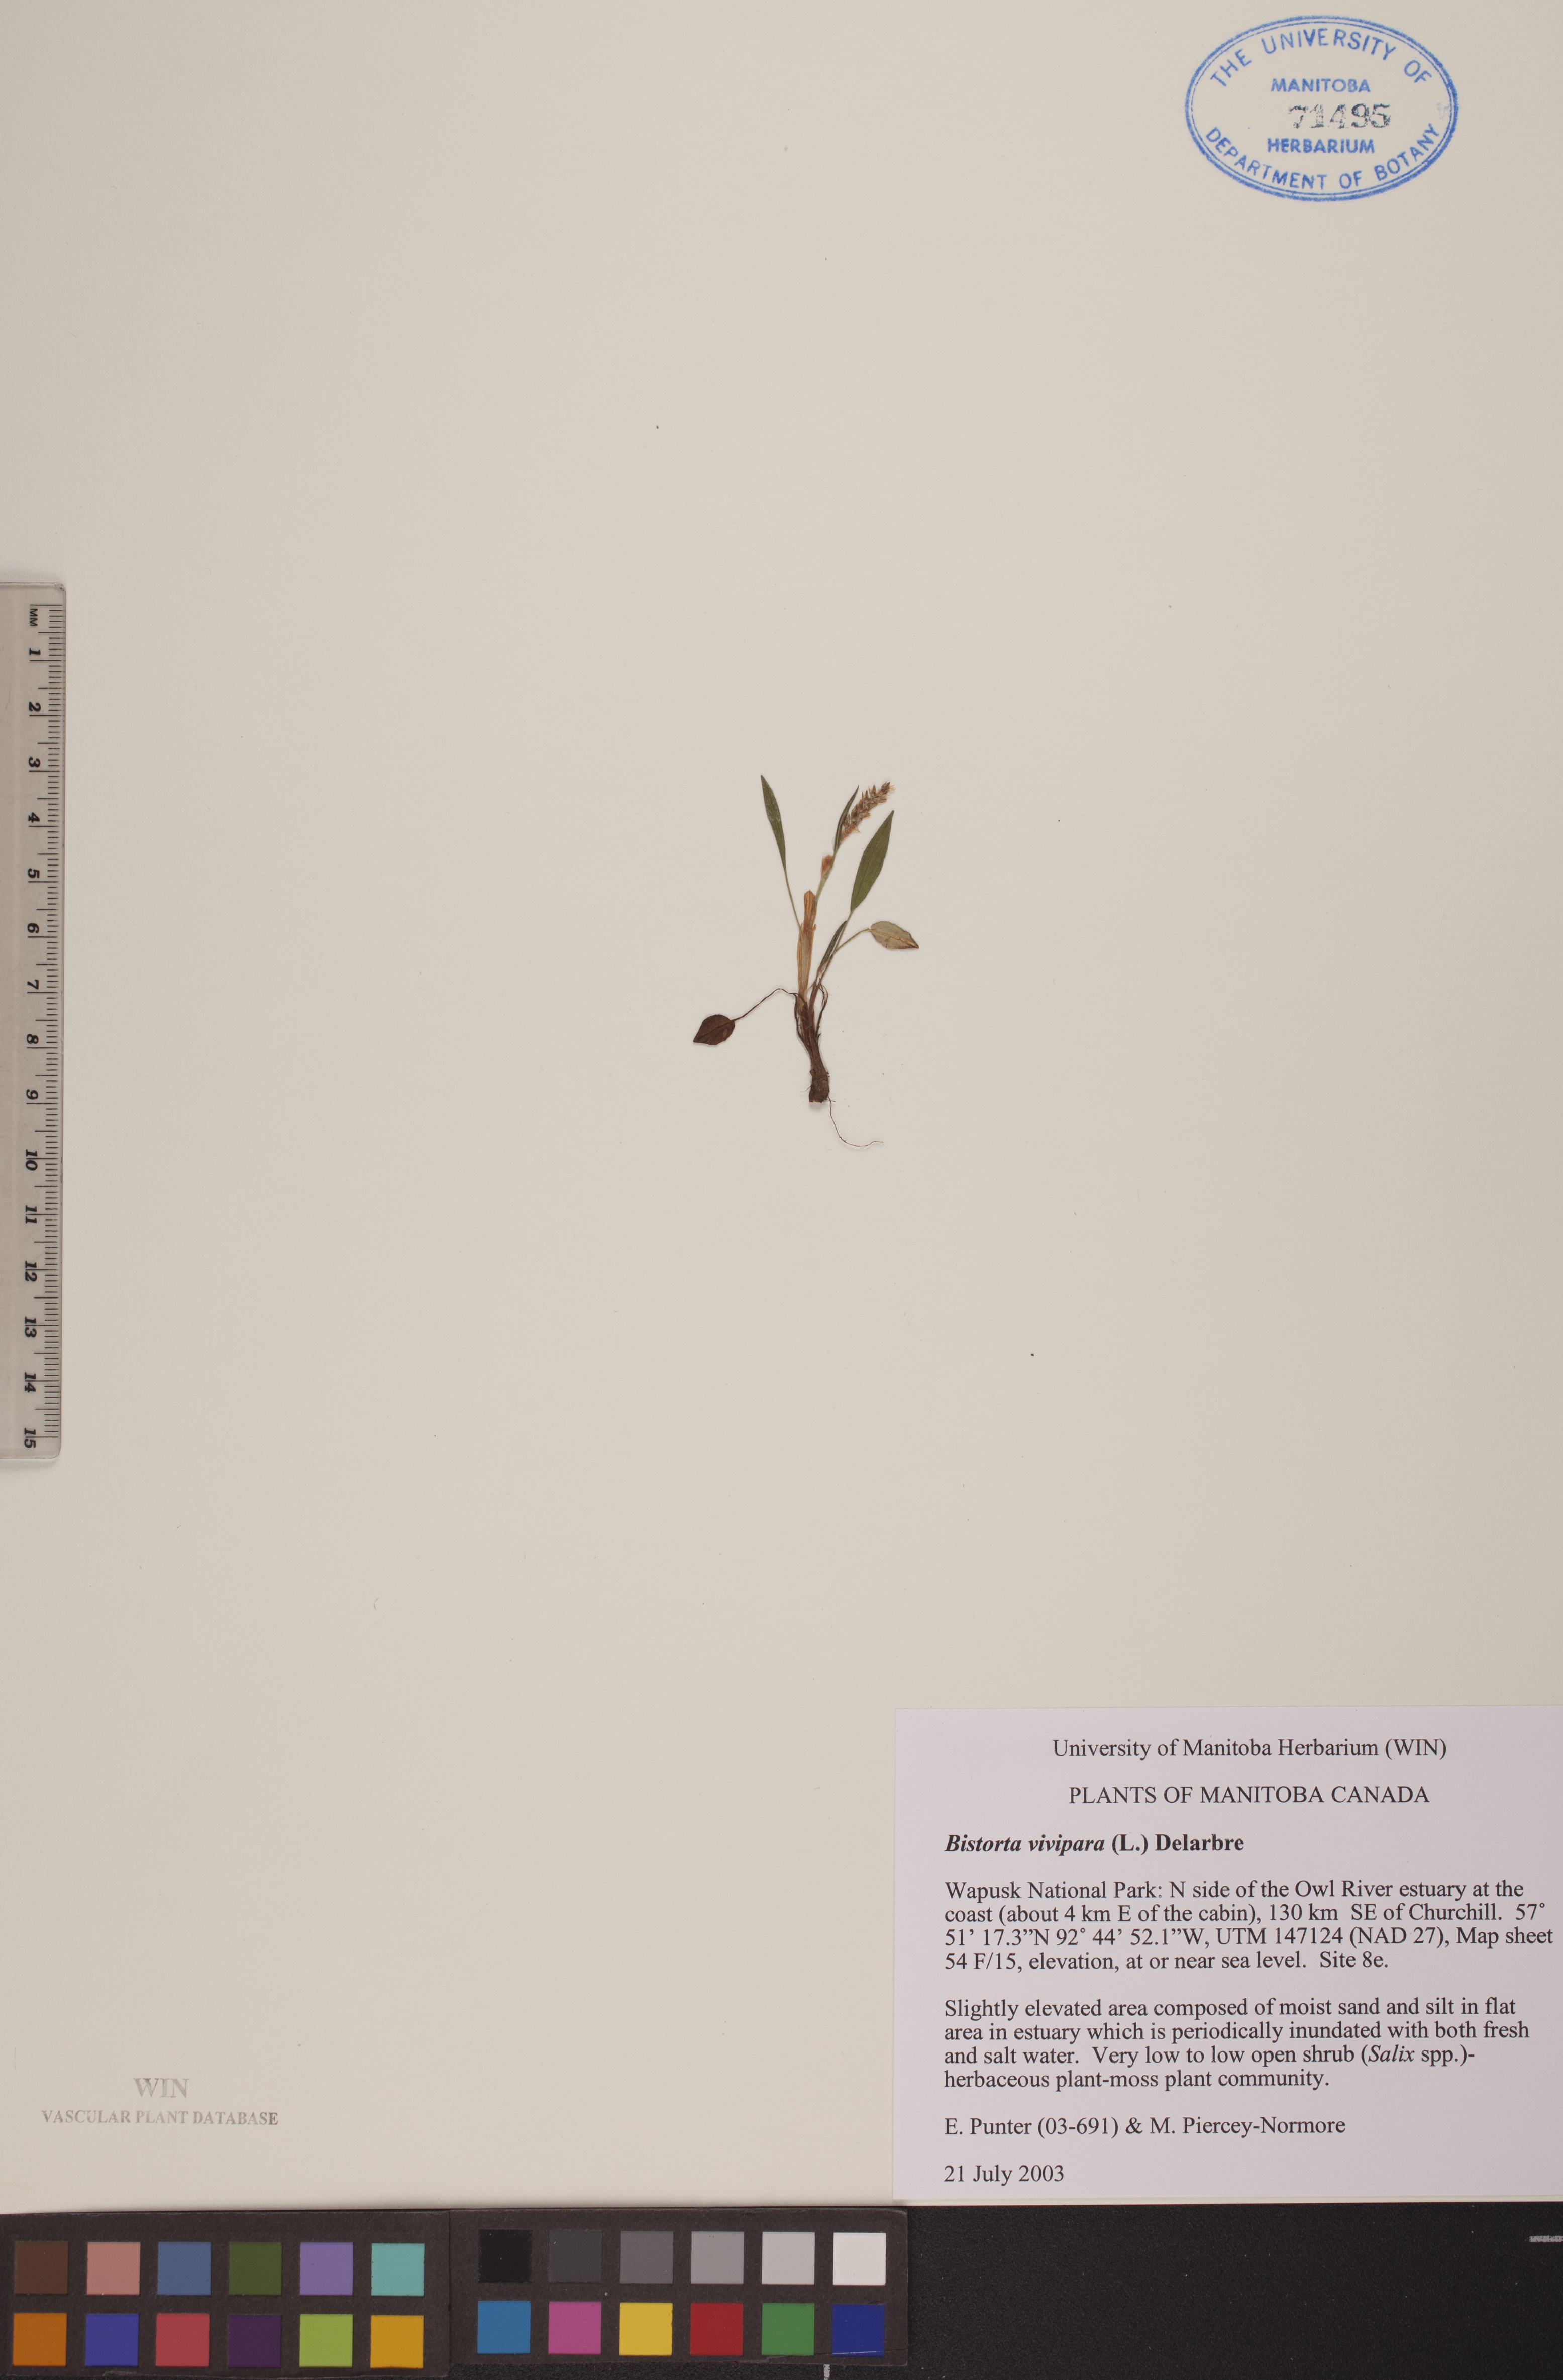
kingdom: Plantae
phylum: Tracheophyta
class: Magnoliopsida
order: Caryophyllales
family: Polygonaceae
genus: Bistorta
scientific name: Bistorta vivipara
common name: Alpine bistort
